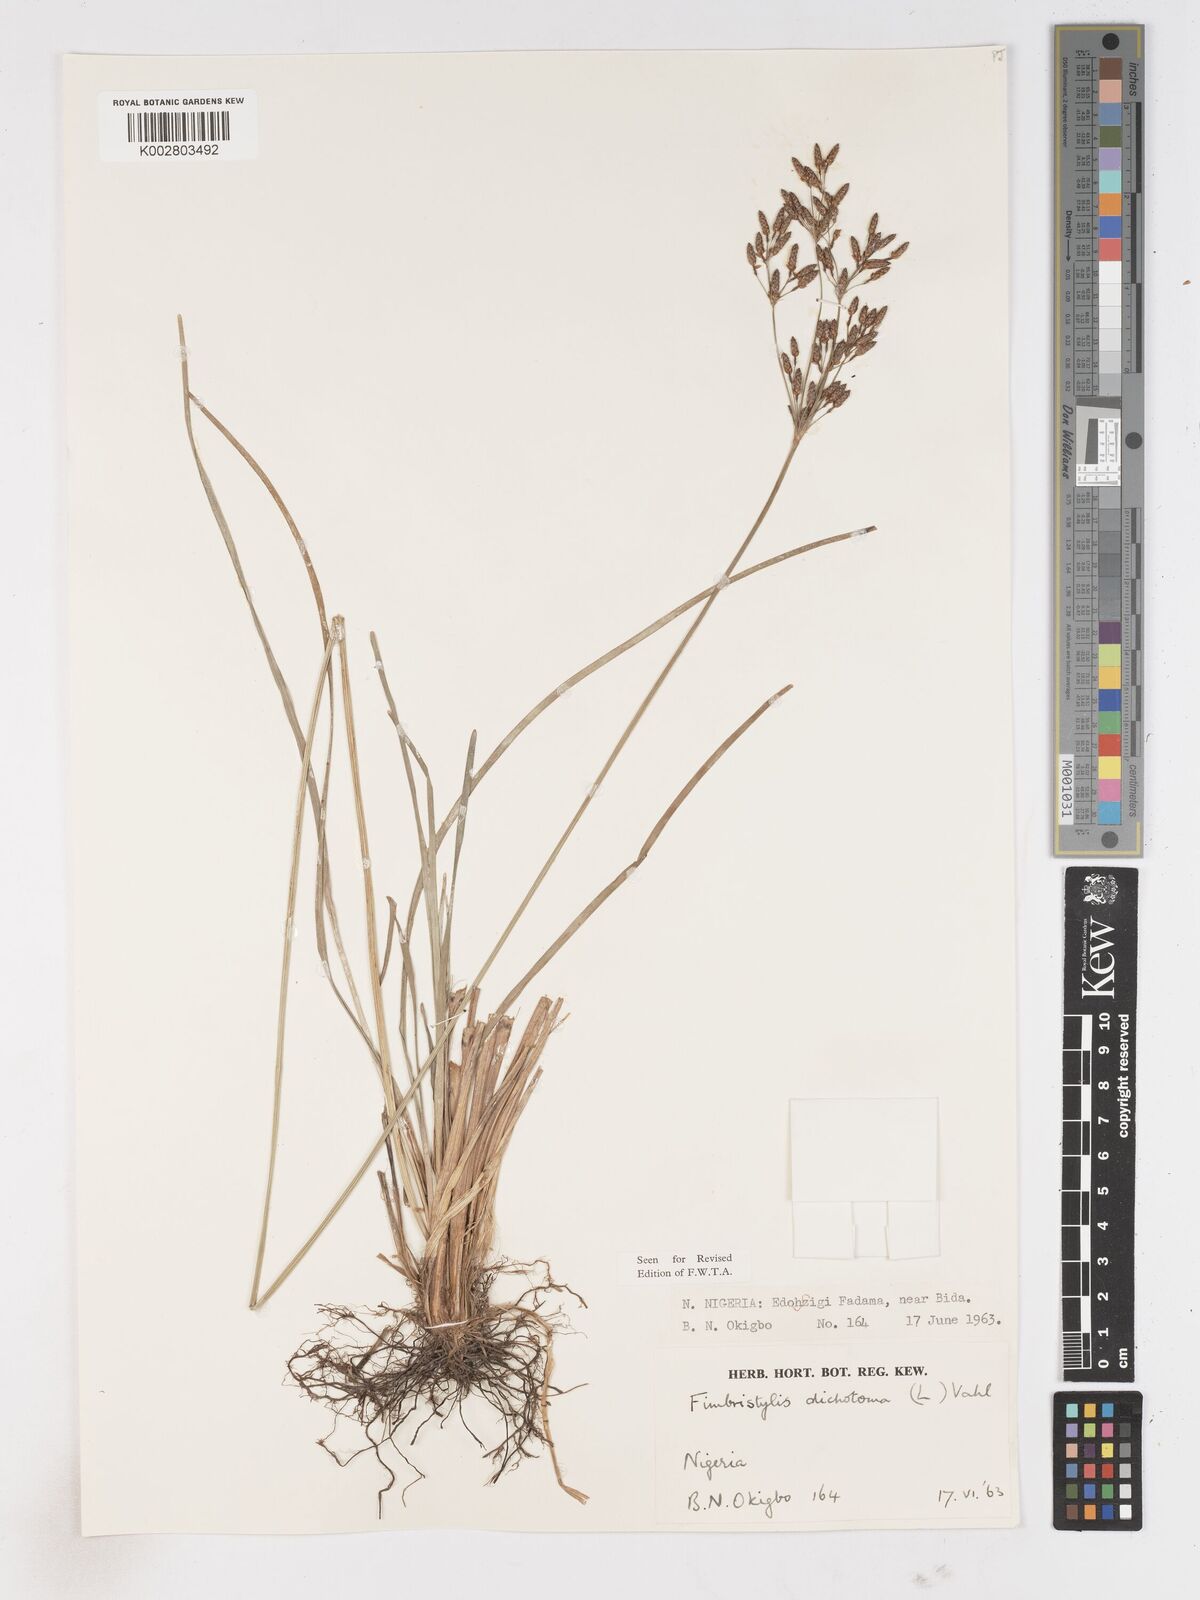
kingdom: Plantae
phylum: Tracheophyta
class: Liliopsida
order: Poales
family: Cyperaceae
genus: Fimbristylis
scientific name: Fimbristylis dichotoma
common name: Forked fimbry
